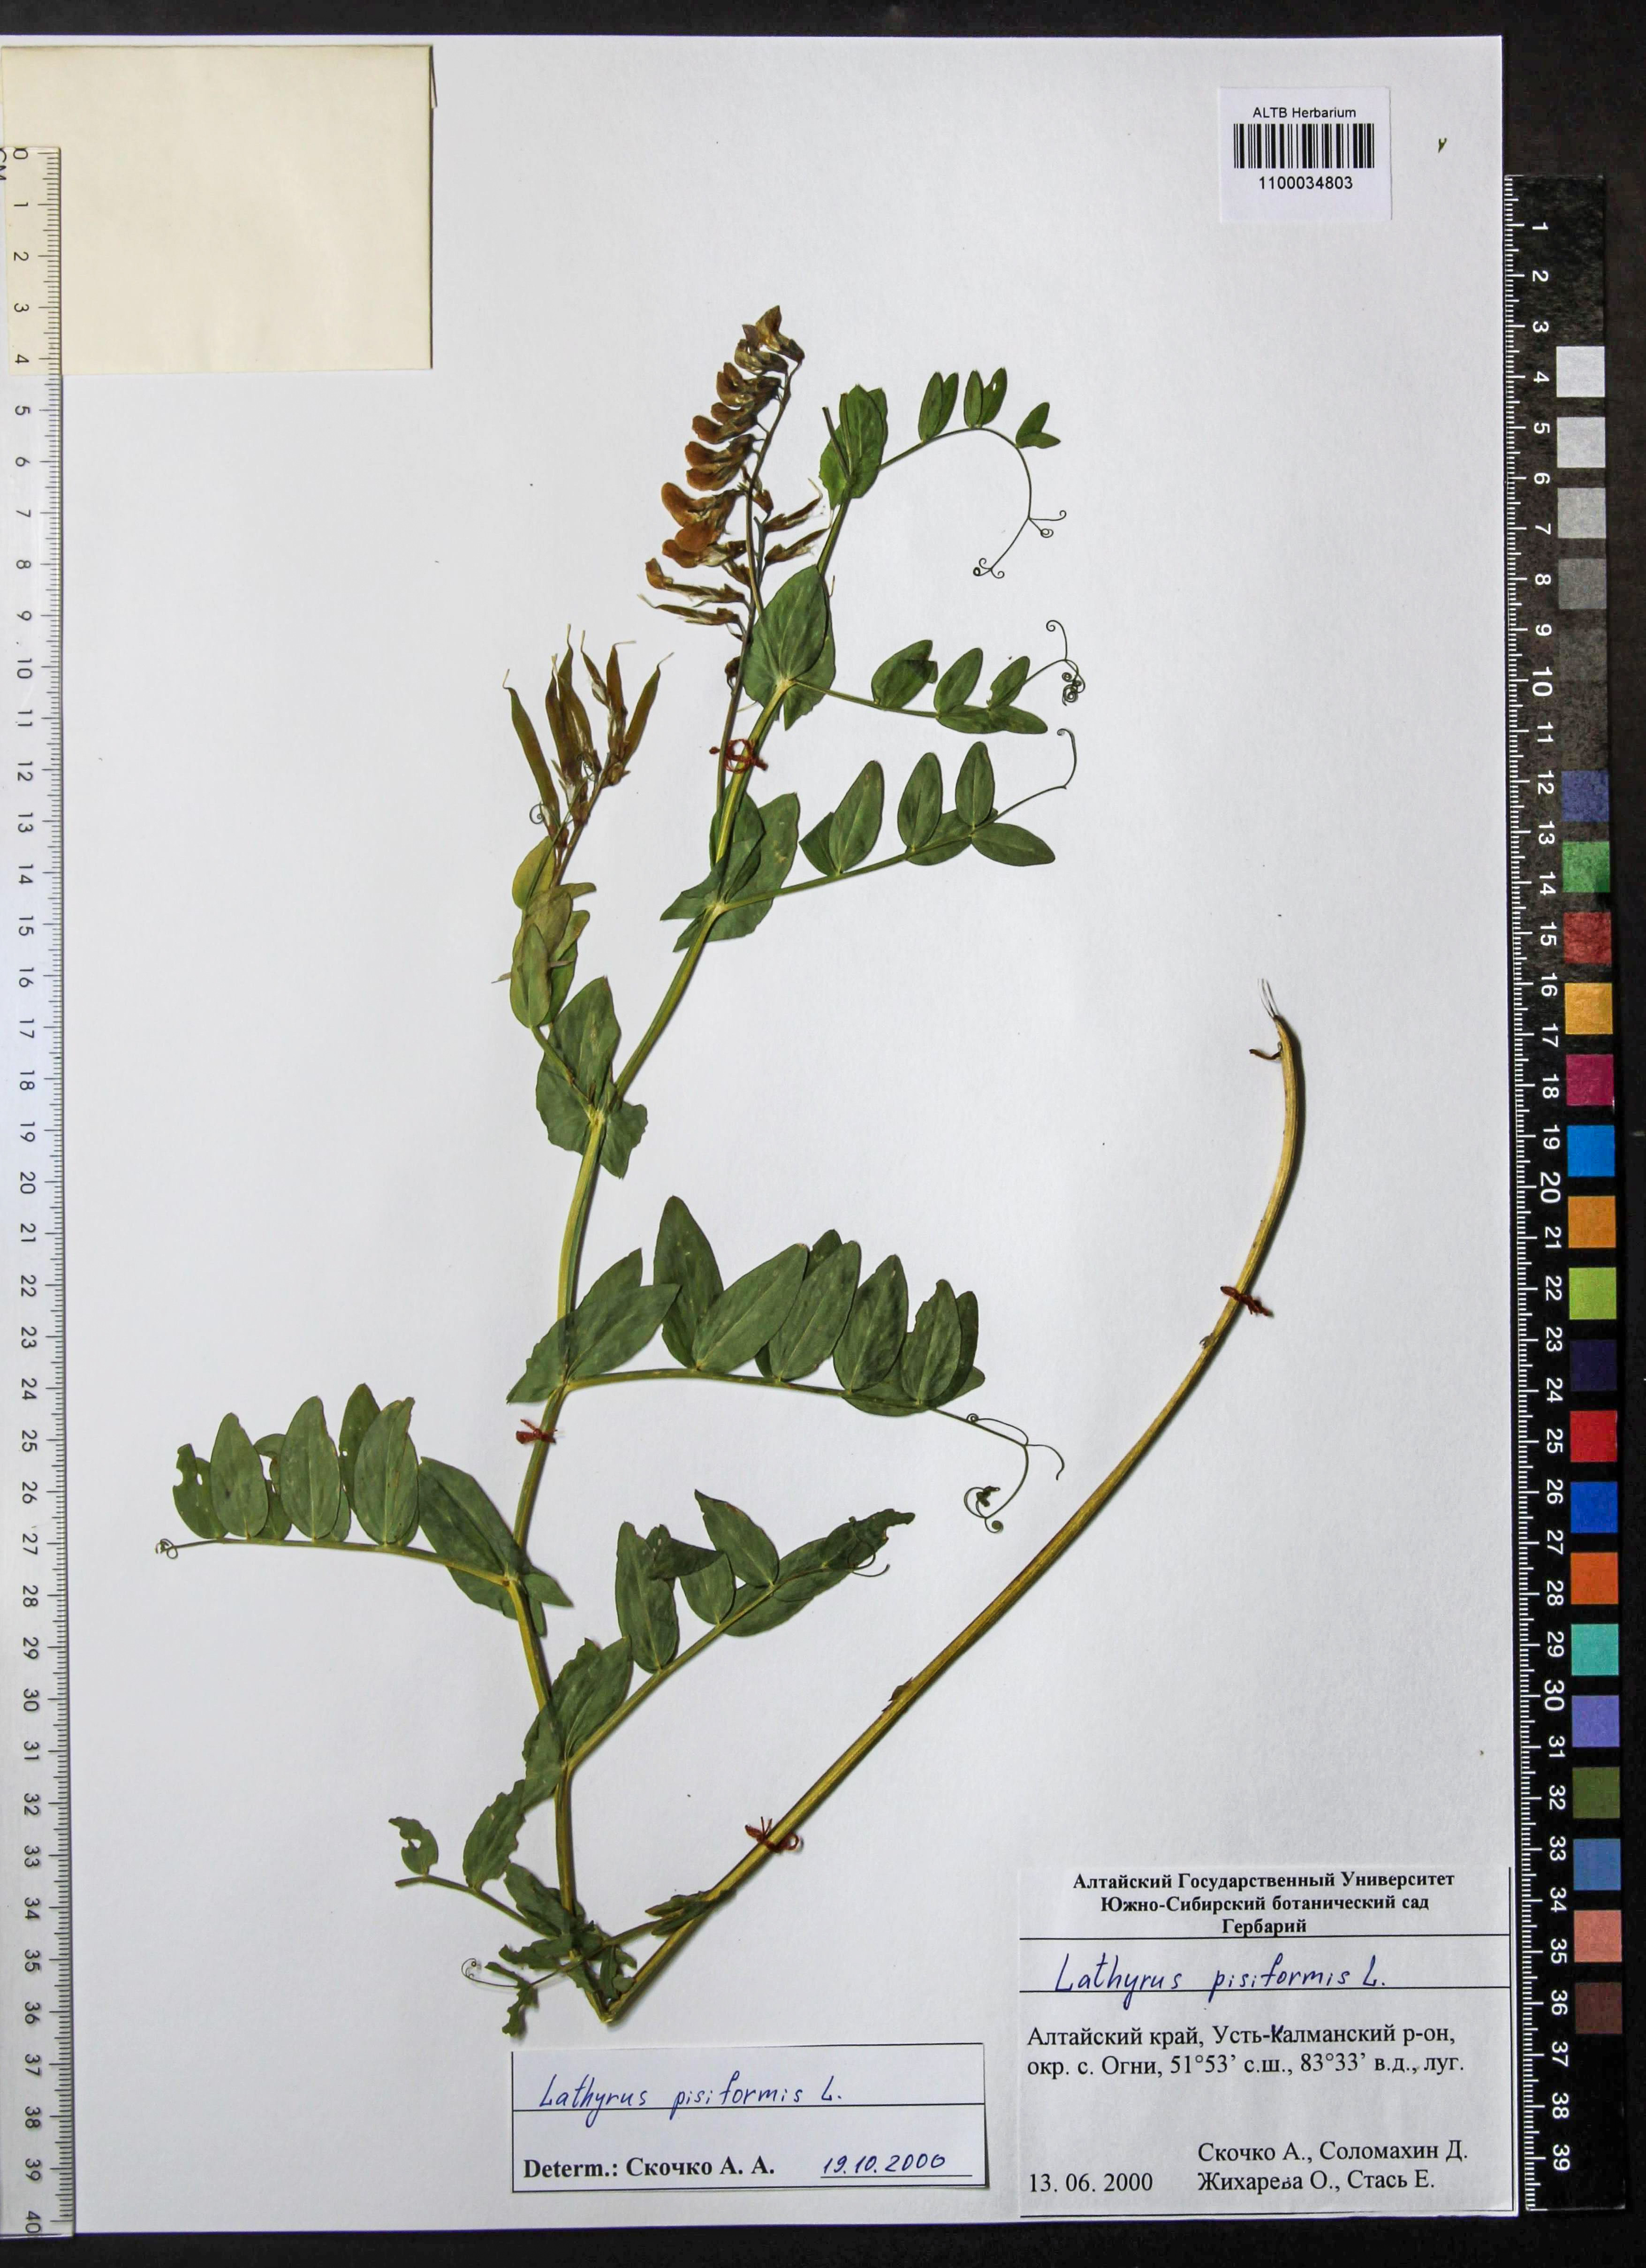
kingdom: Plantae
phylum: Tracheophyta
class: Magnoliopsida
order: Fabales
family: Fabaceae
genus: Lathyrus
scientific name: Lathyrus pisiformis
